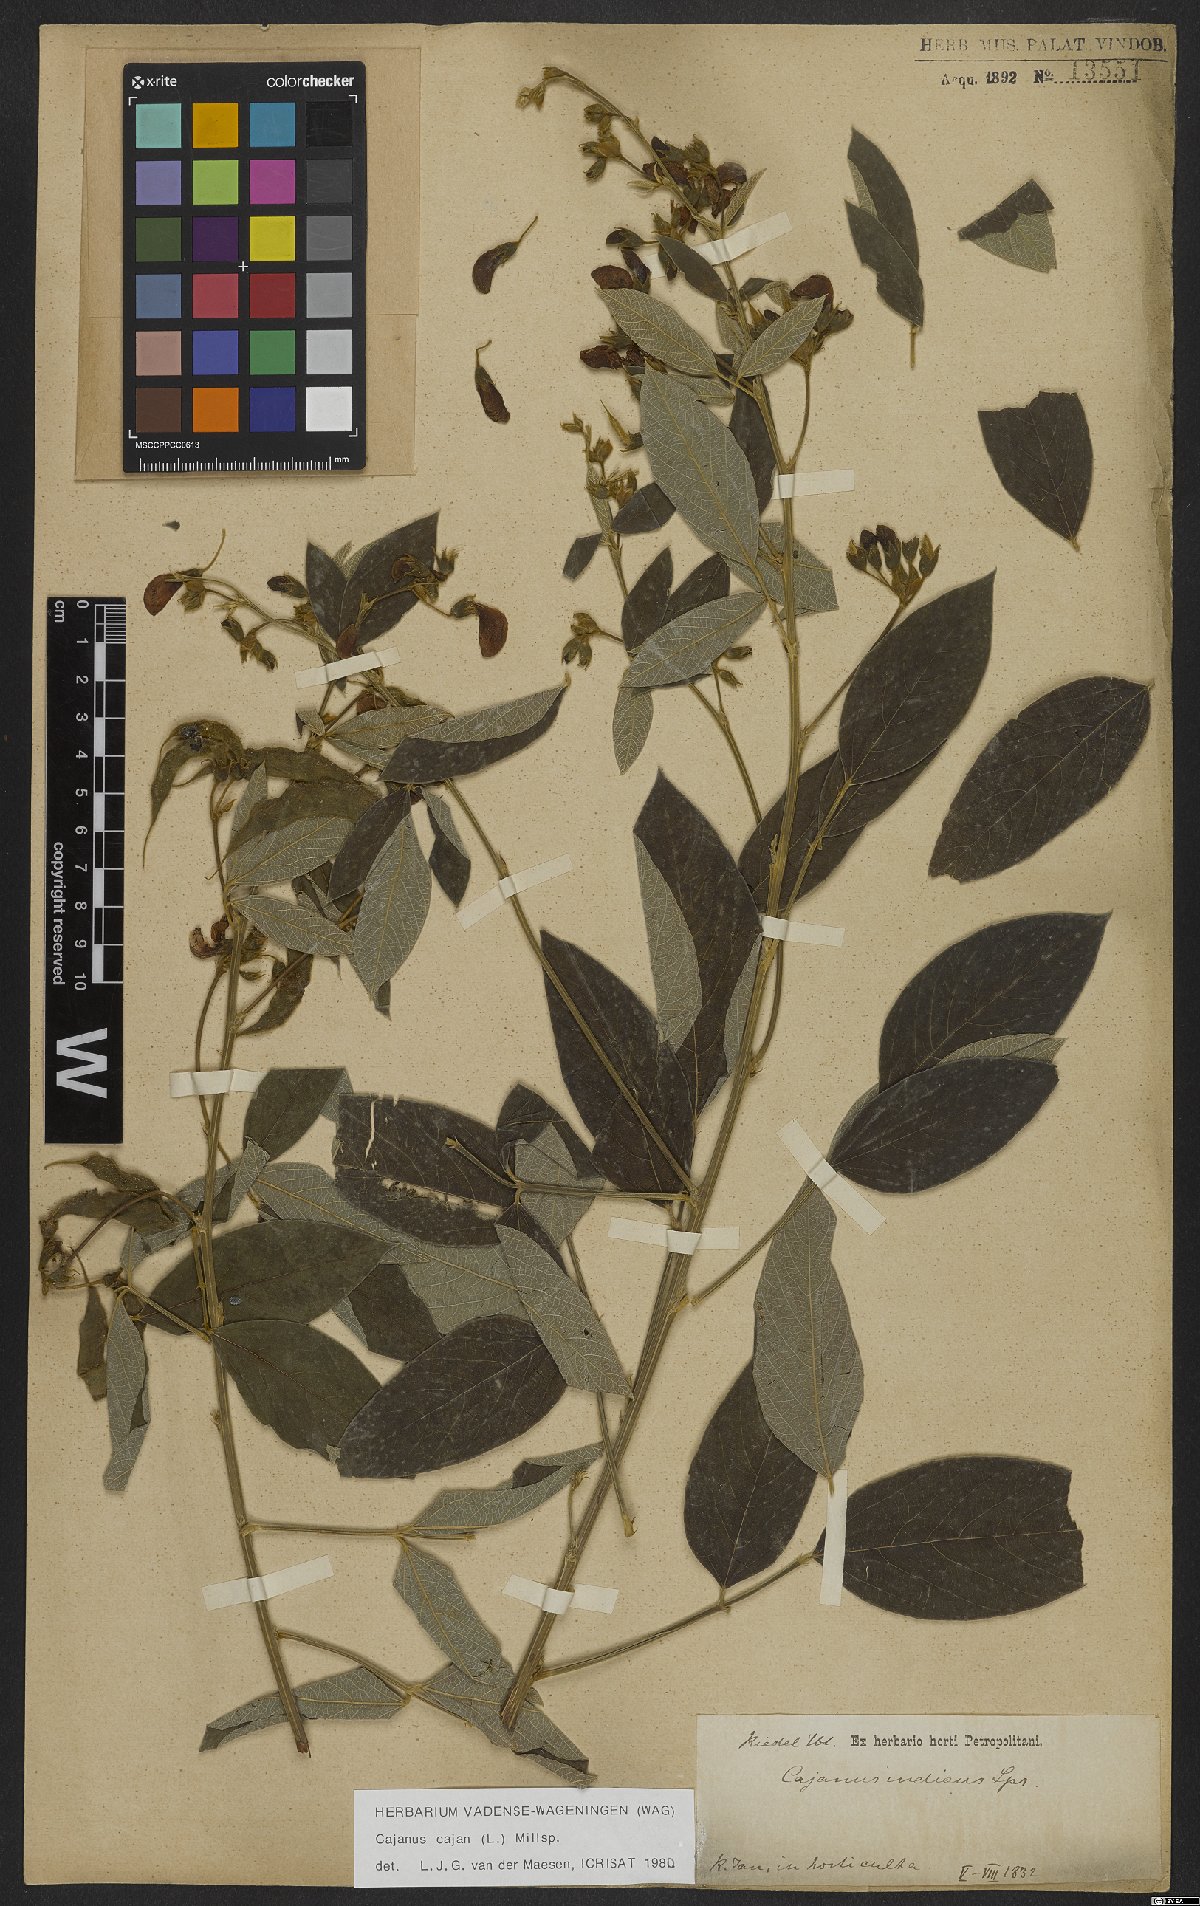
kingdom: Plantae
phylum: Tracheophyta
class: Magnoliopsida
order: Fabales
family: Fabaceae
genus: Cajanus
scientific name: Cajanus cajan
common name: Pigeonpea
